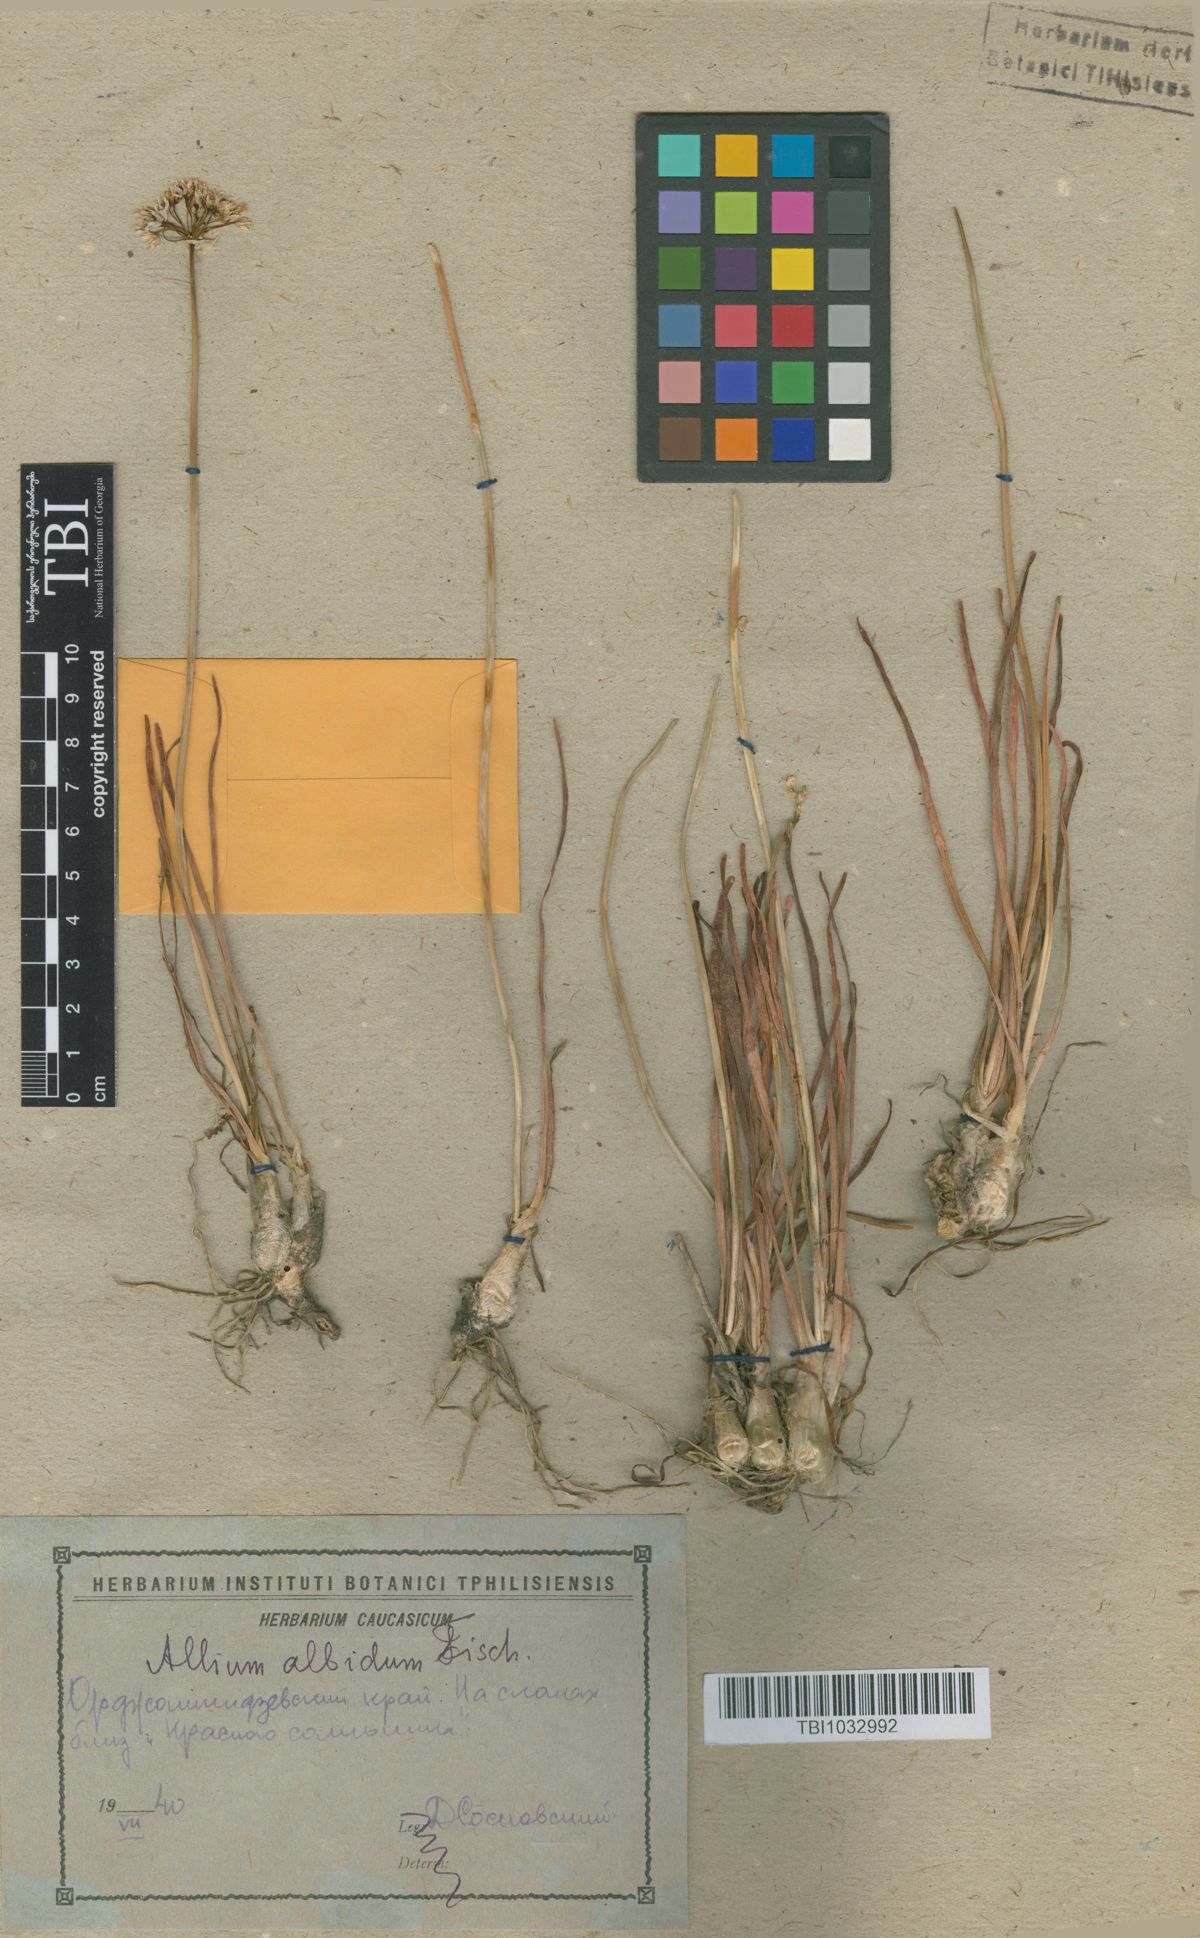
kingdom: Plantae
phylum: Tracheophyta
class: Liliopsida
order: Asparagales
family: Amaryllidaceae
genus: Allium
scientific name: Allium denudatum
